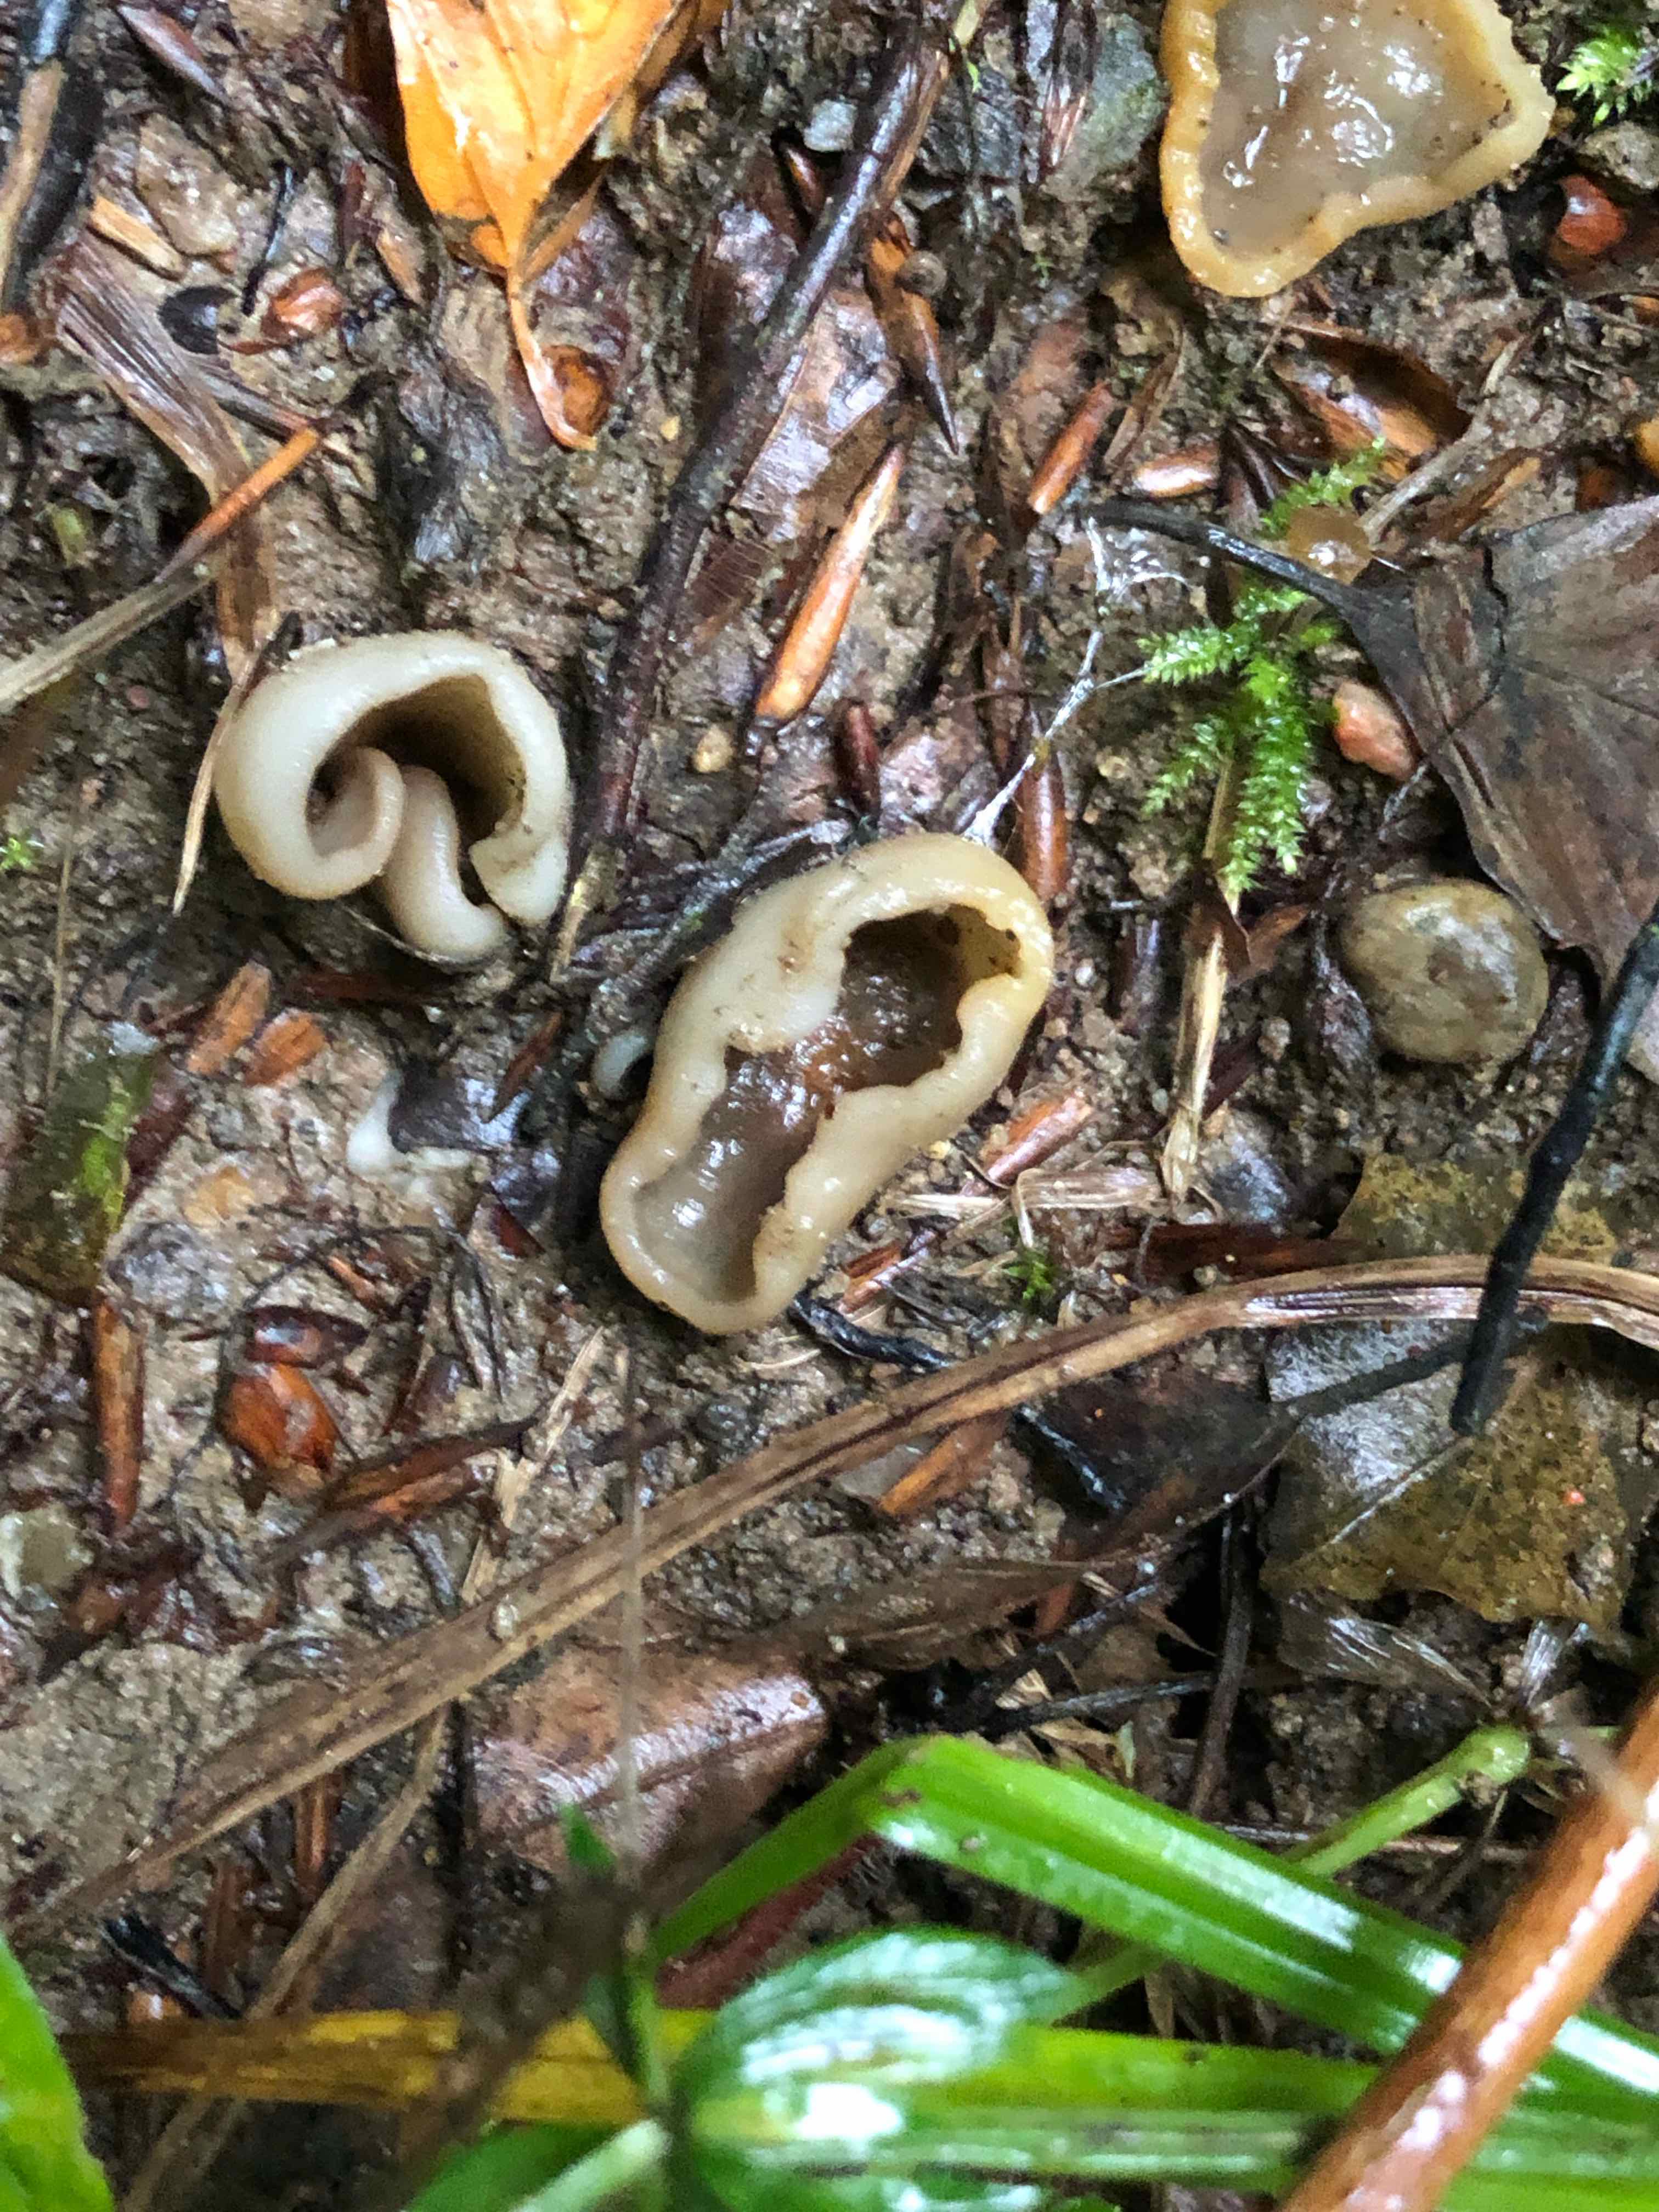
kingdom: Fungi
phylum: Ascomycota
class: Pezizomycetes
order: Pezizales
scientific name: Pezizales
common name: bægersvampordenen
